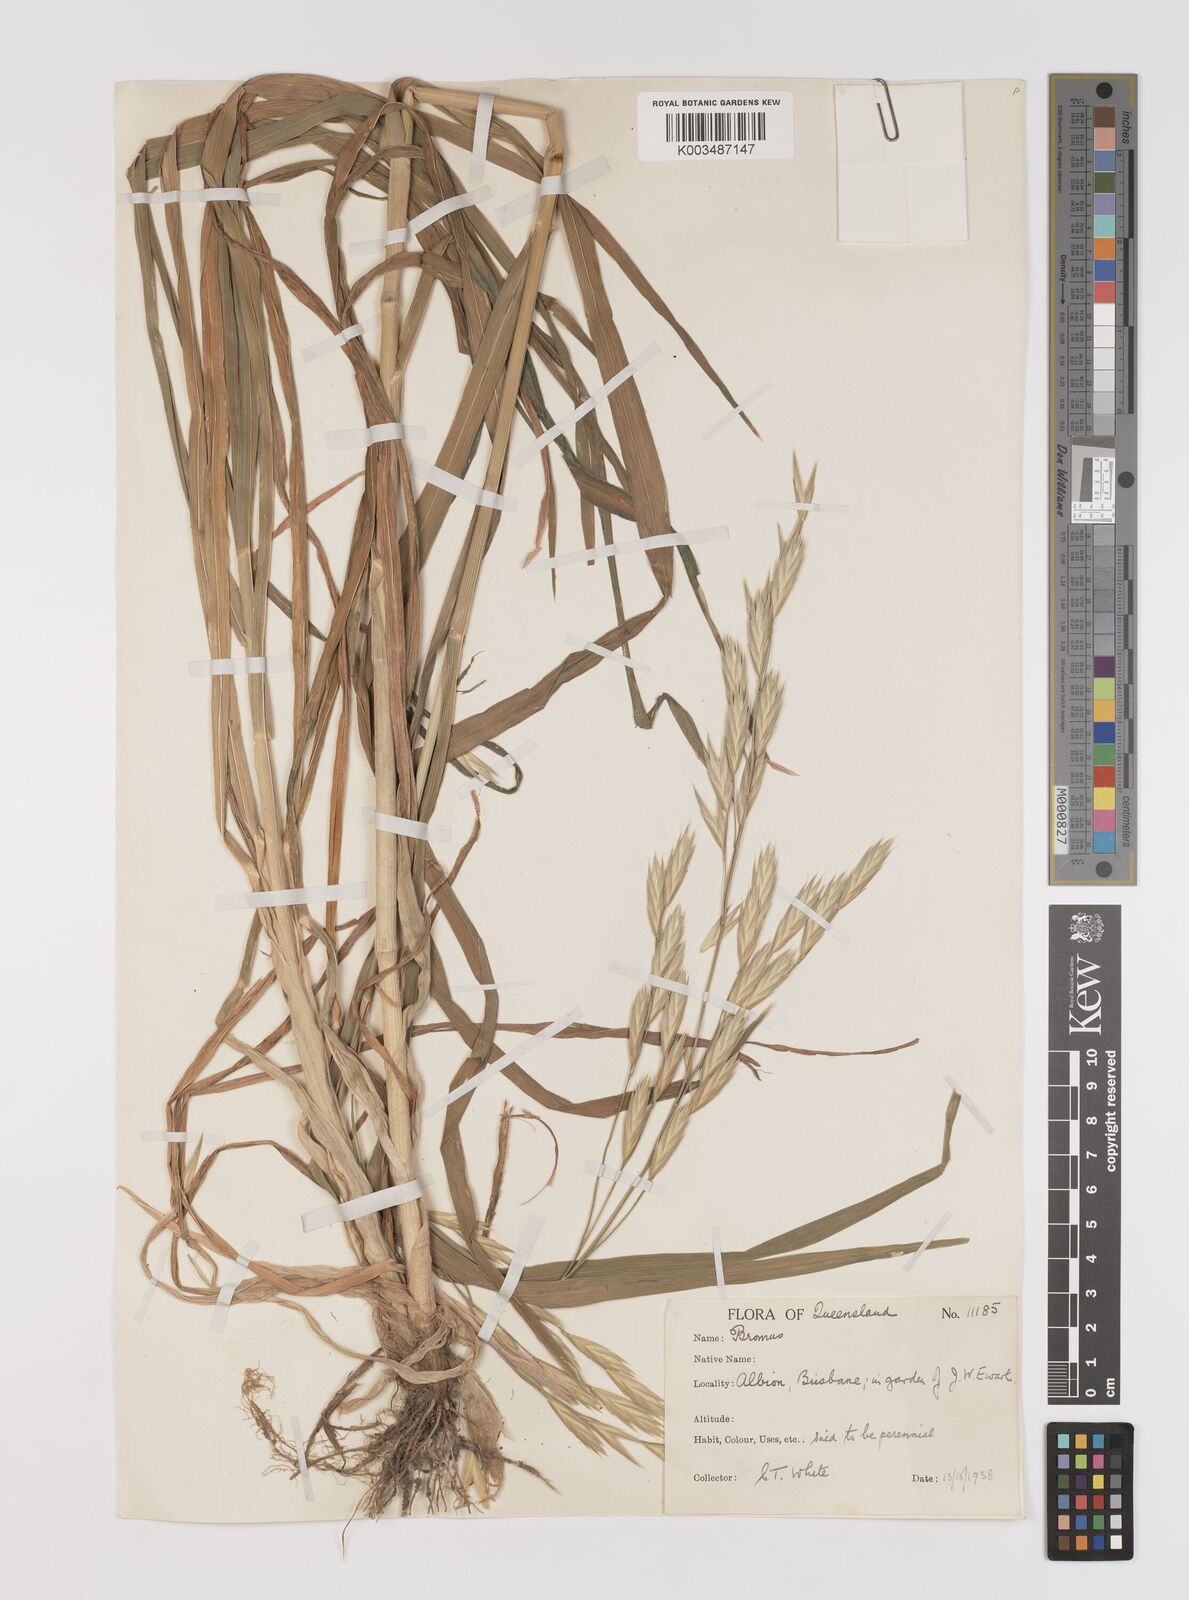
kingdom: Plantae
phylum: Tracheophyta
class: Liliopsida
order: Poales
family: Poaceae
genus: Bromus
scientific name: Bromus catharticus
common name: Rescuegrass
